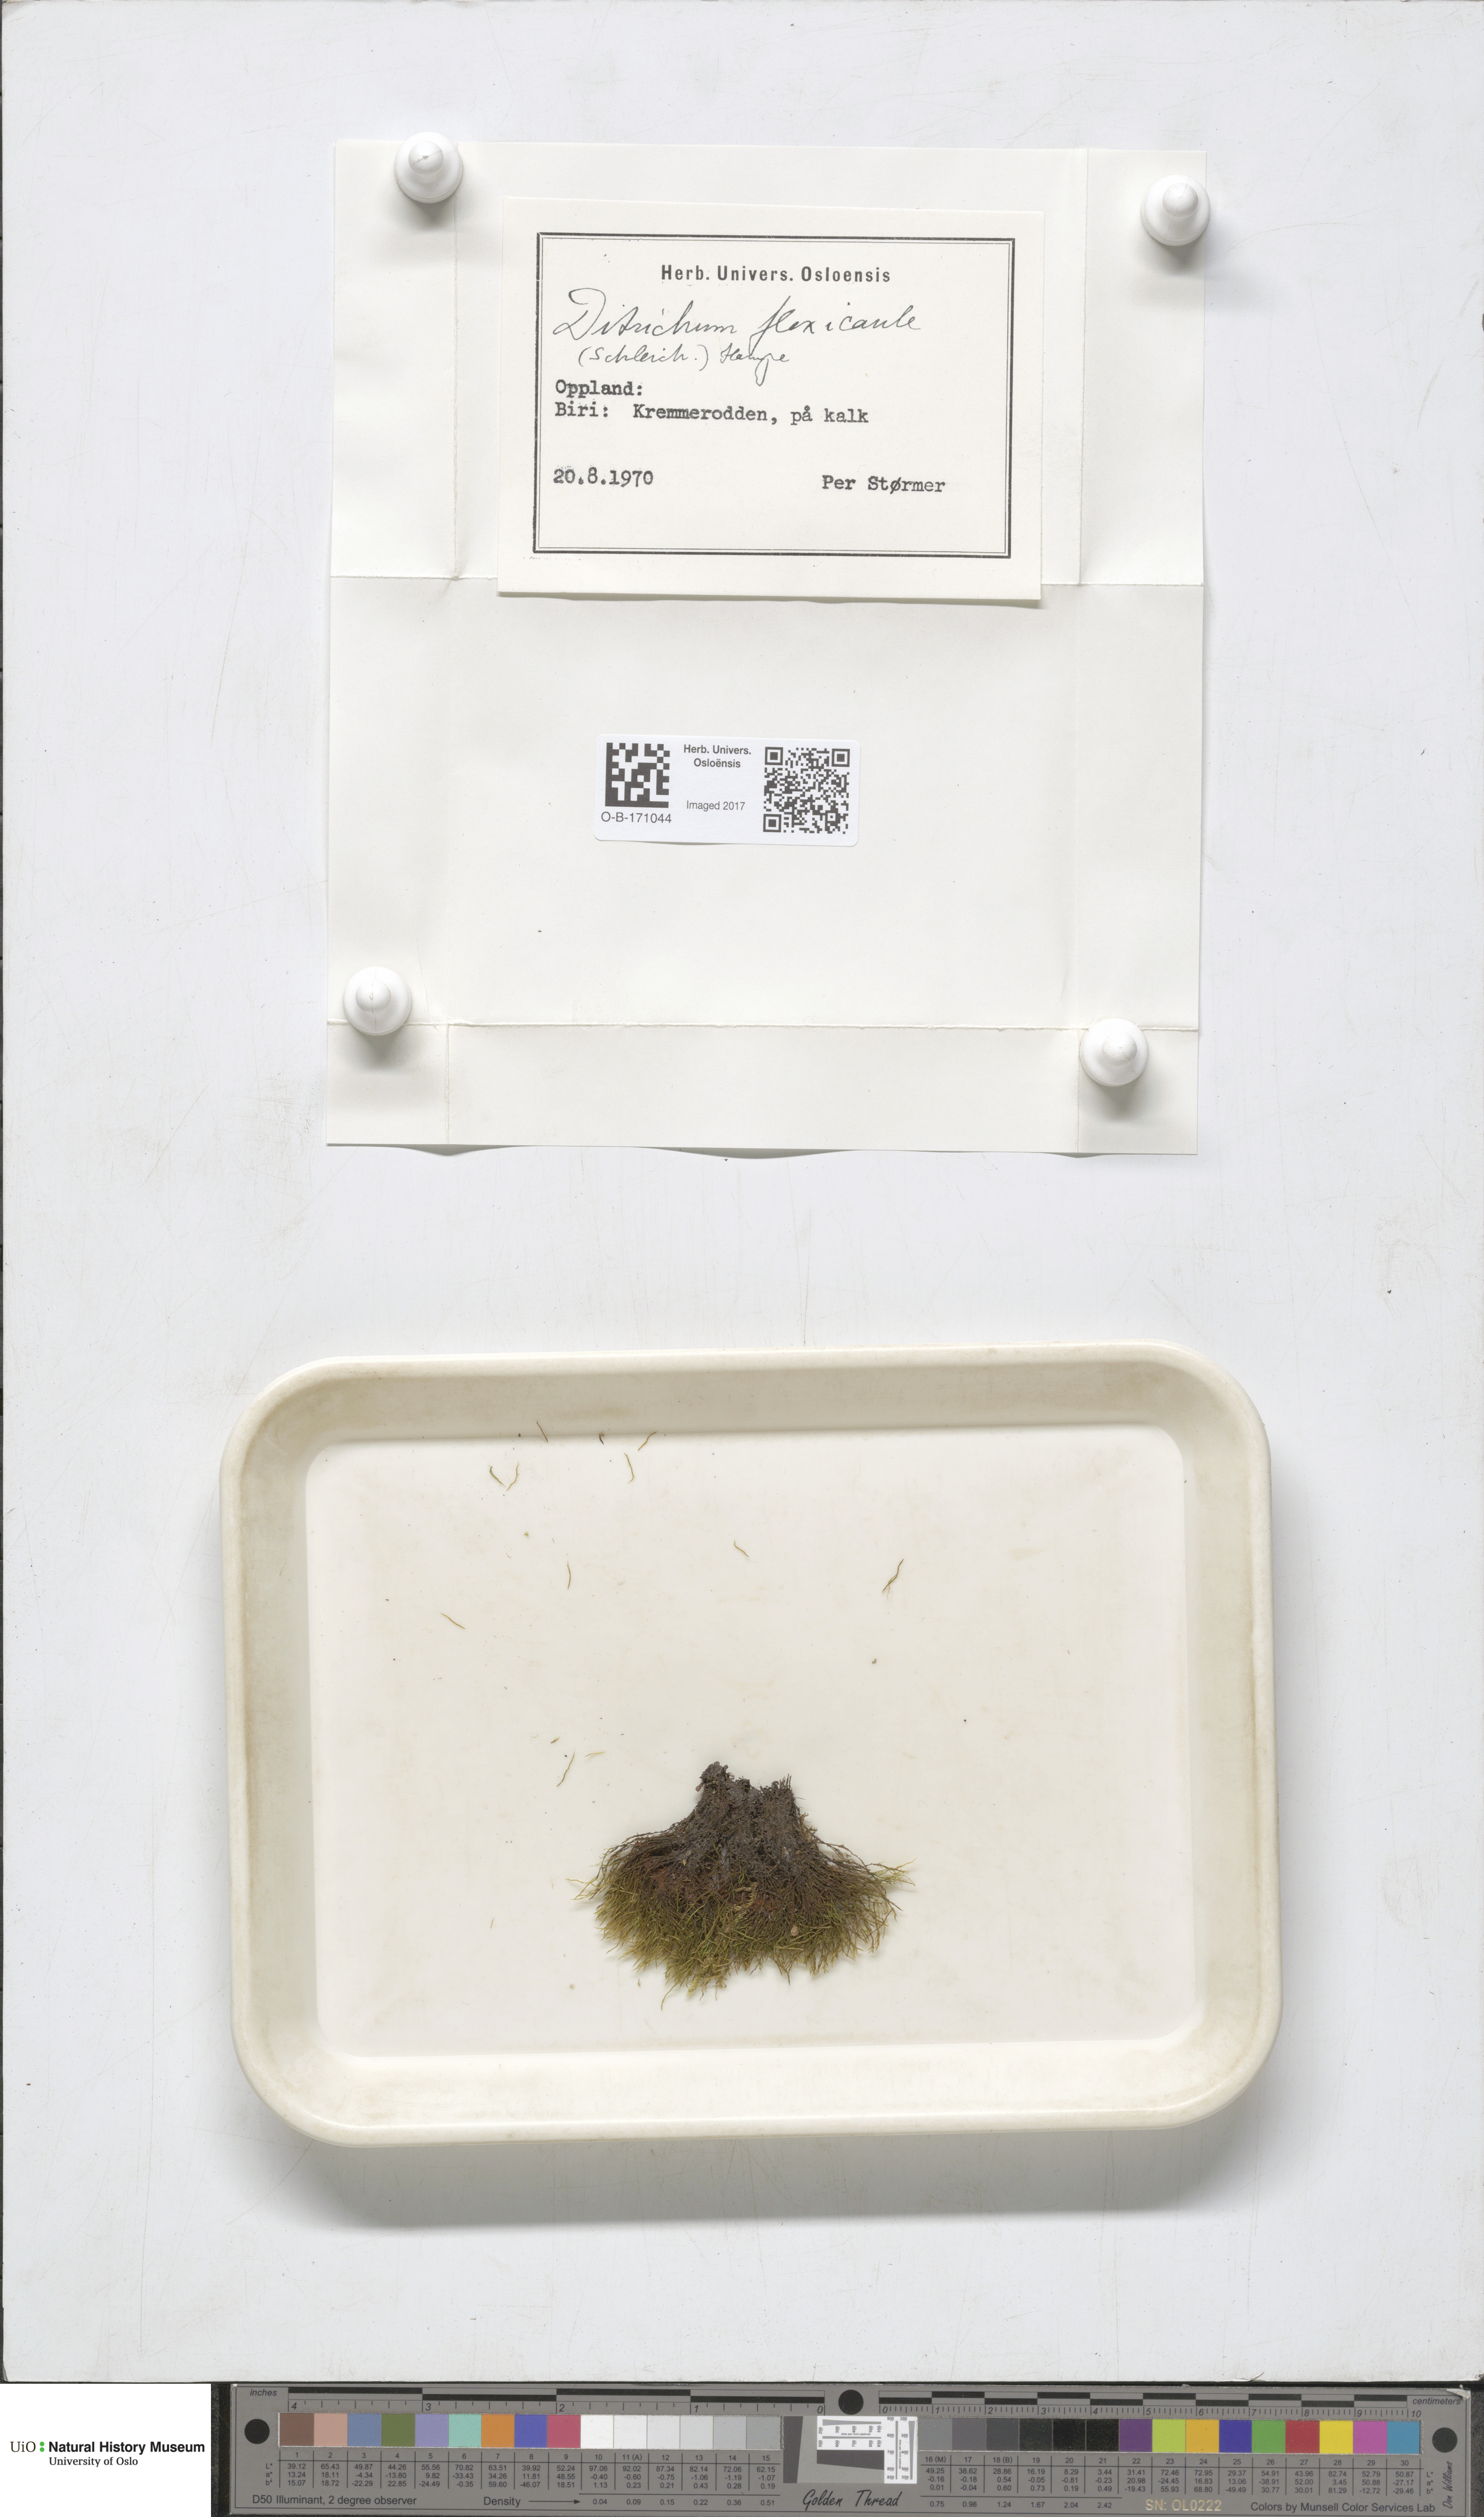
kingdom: Plantae
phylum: Bryophyta
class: Bryopsida
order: Scouleriales
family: Flexitrichaceae
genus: Flexitrichum
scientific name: Flexitrichum flexicaule
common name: Bendy ditrichum
